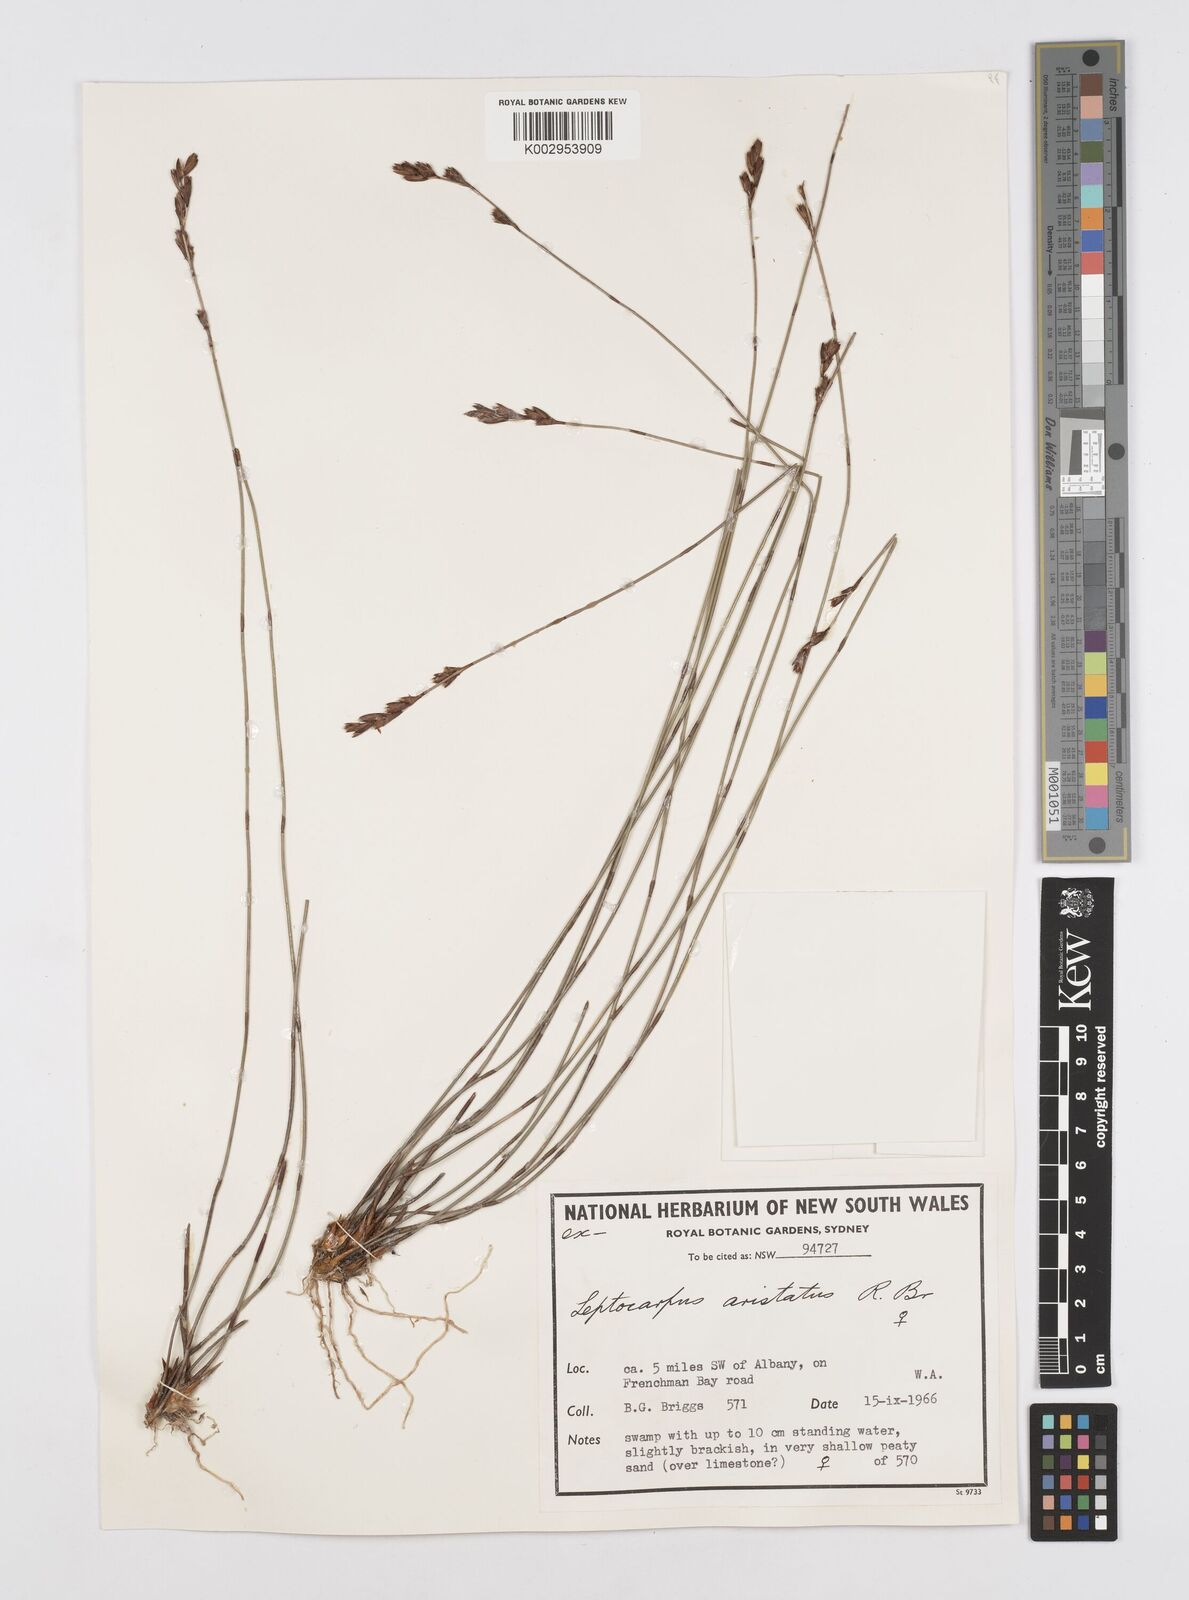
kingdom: Plantae
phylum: Tracheophyta
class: Liliopsida
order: Poales
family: Restionaceae
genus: Chaetanthus
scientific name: Chaetanthus aristatus
